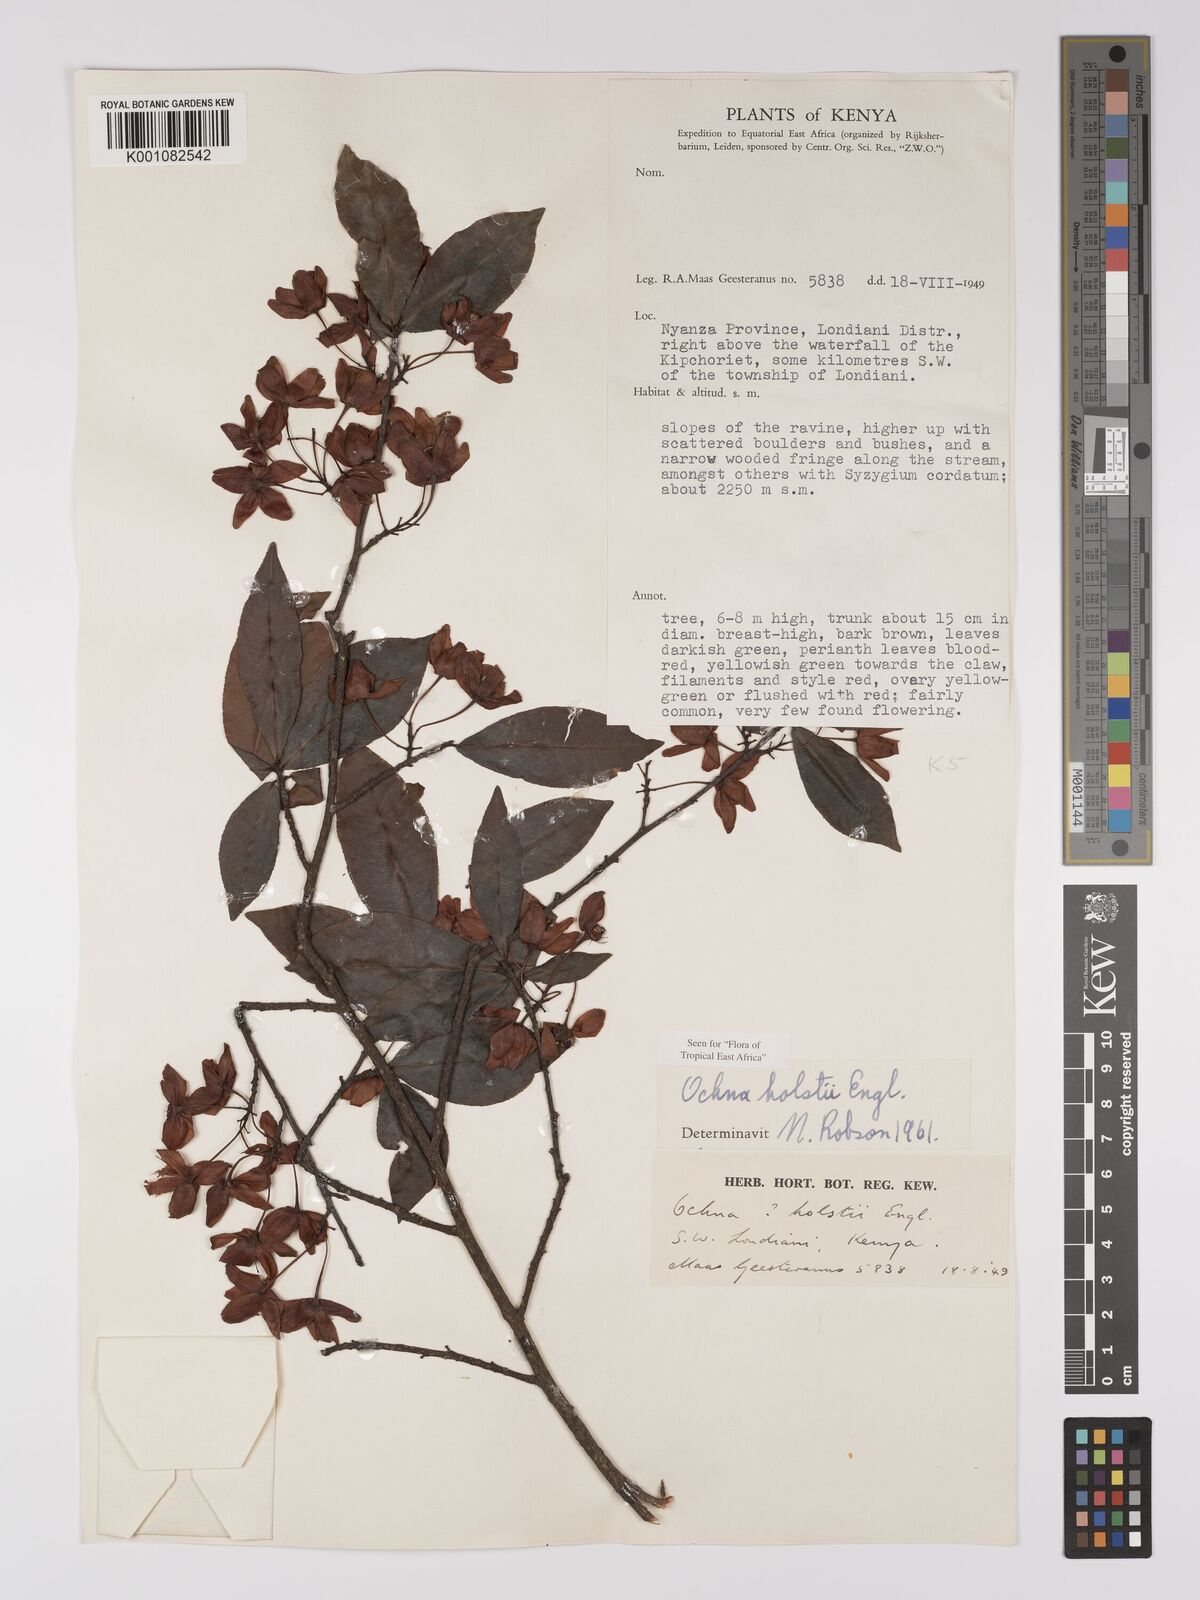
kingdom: Plantae
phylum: Tracheophyta
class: Magnoliopsida
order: Malpighiales
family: Ochnaceae
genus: Ochna
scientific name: Ochna holstii
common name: Red ironwood
